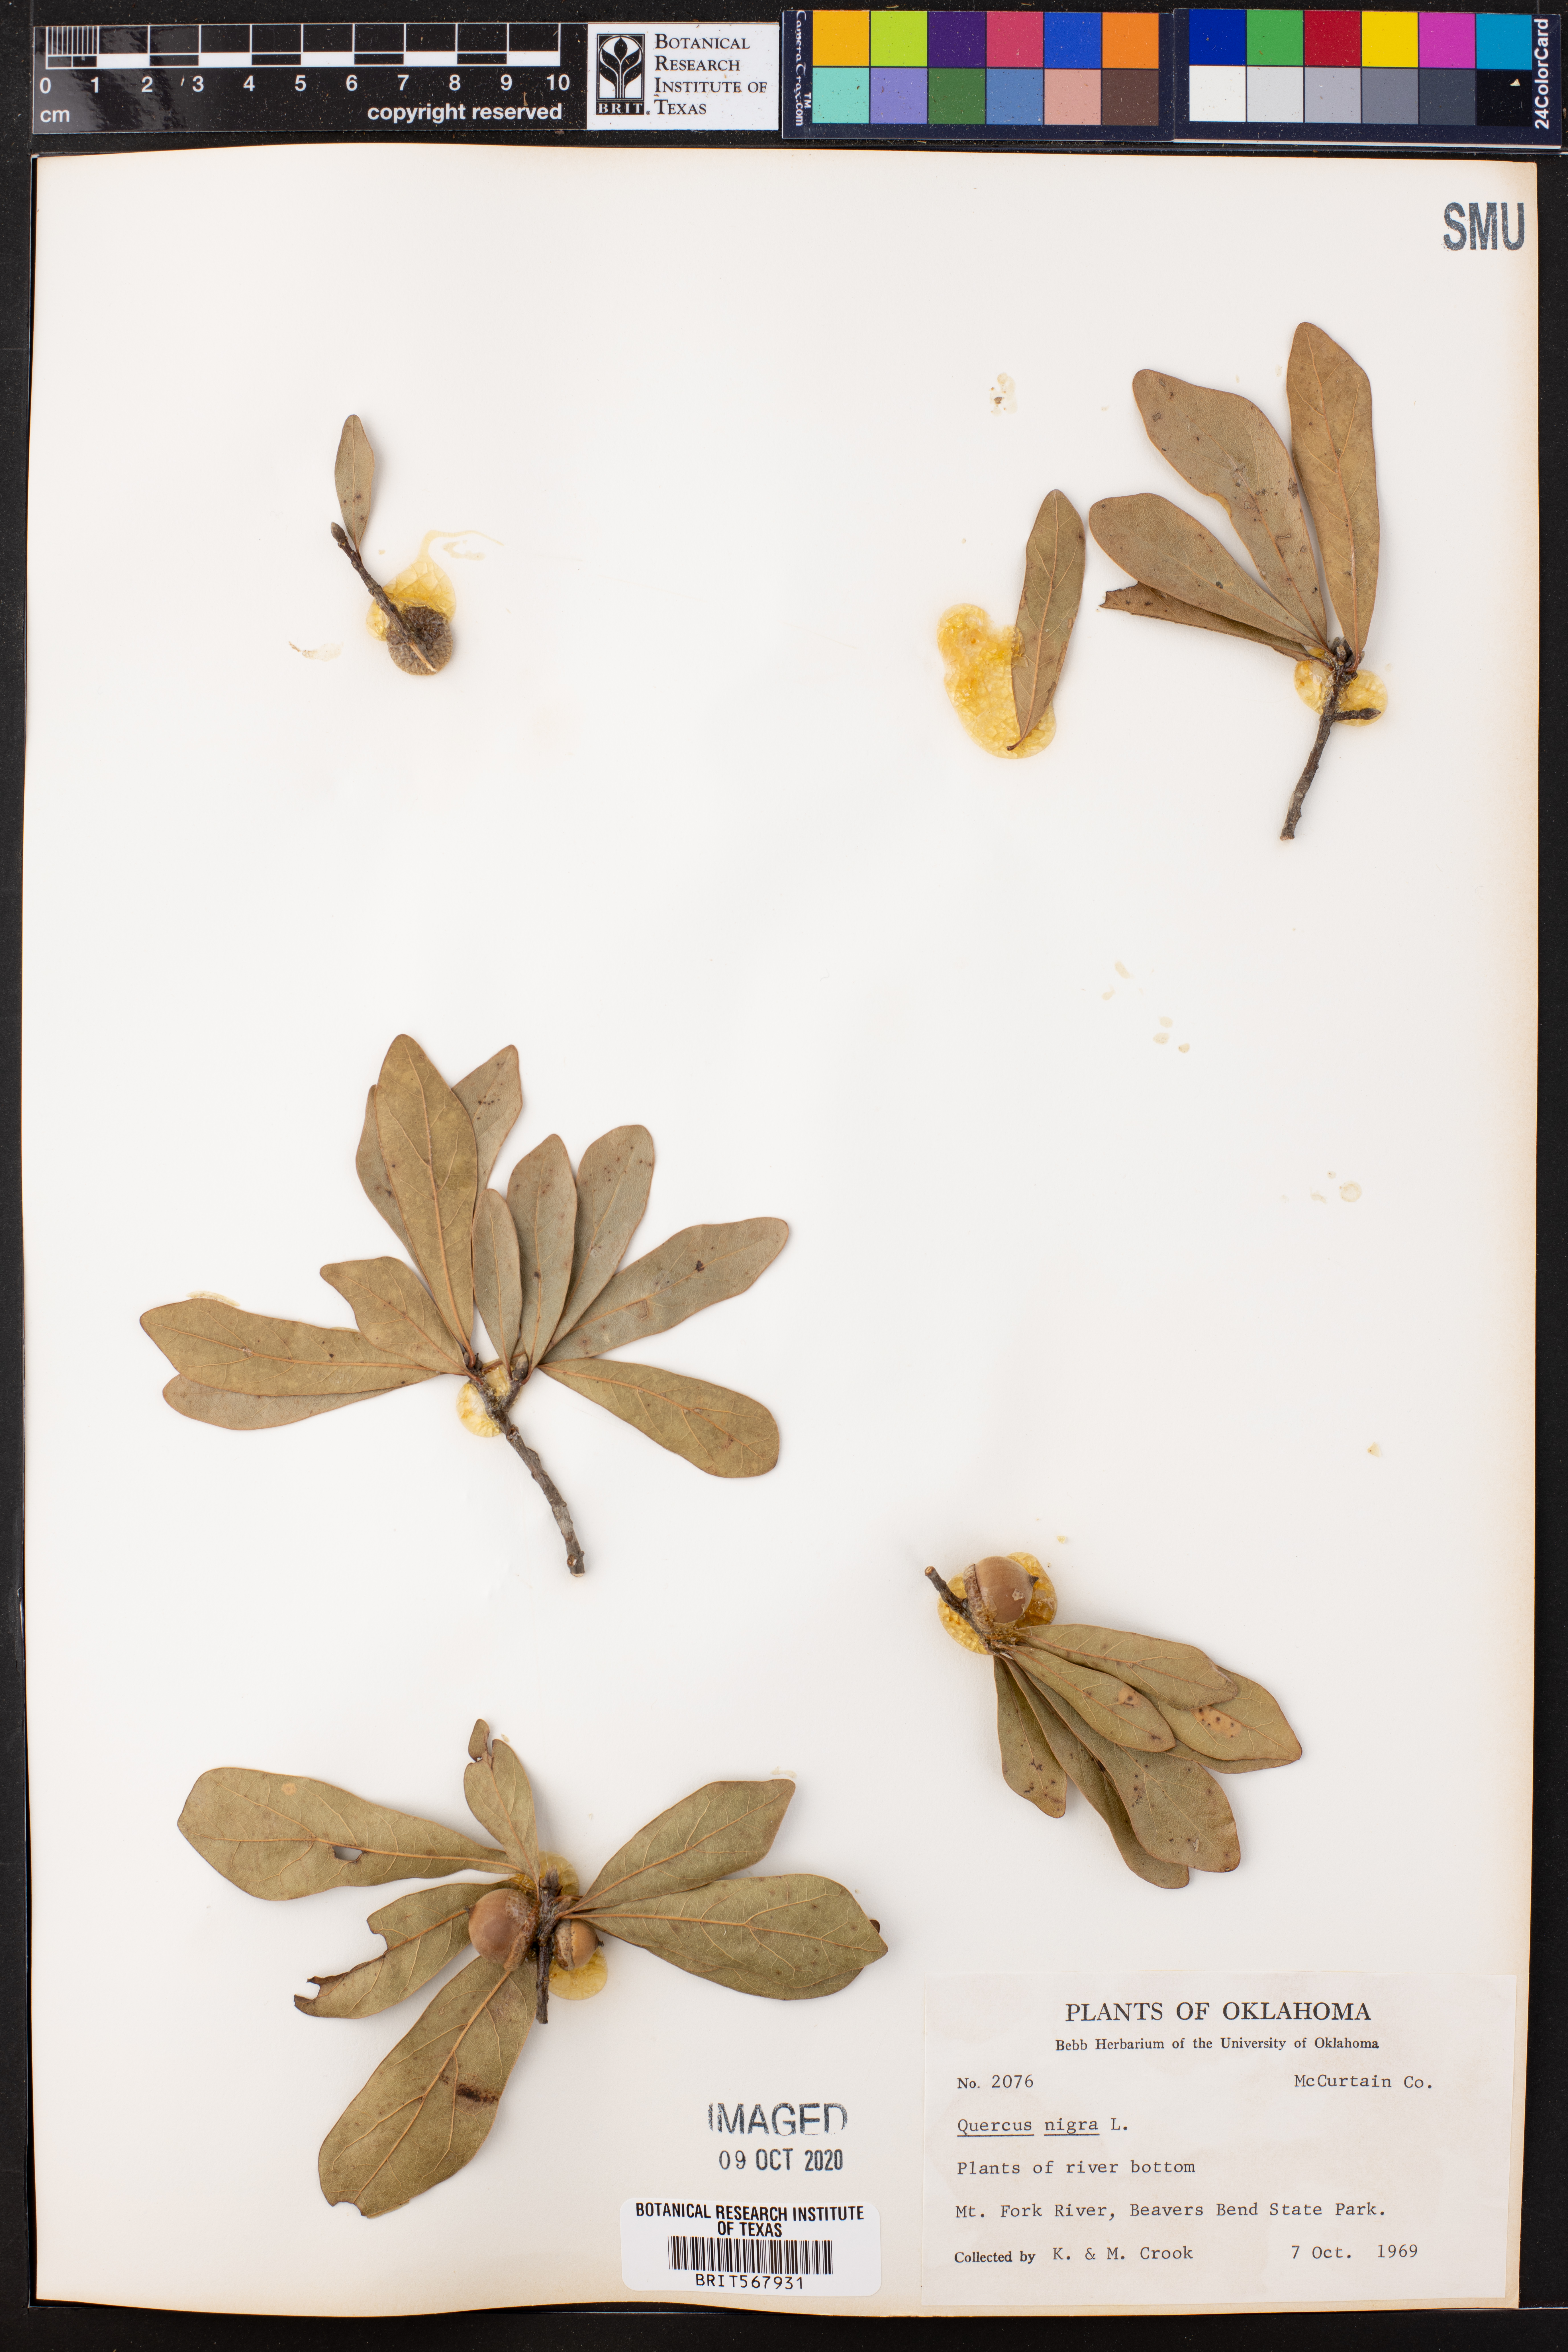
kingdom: Plantae
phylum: Tracheophyta
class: Magnoliopsida
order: Fagales
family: Fagaceae
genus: Quercus
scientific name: Quercus nigra
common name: Water oak
